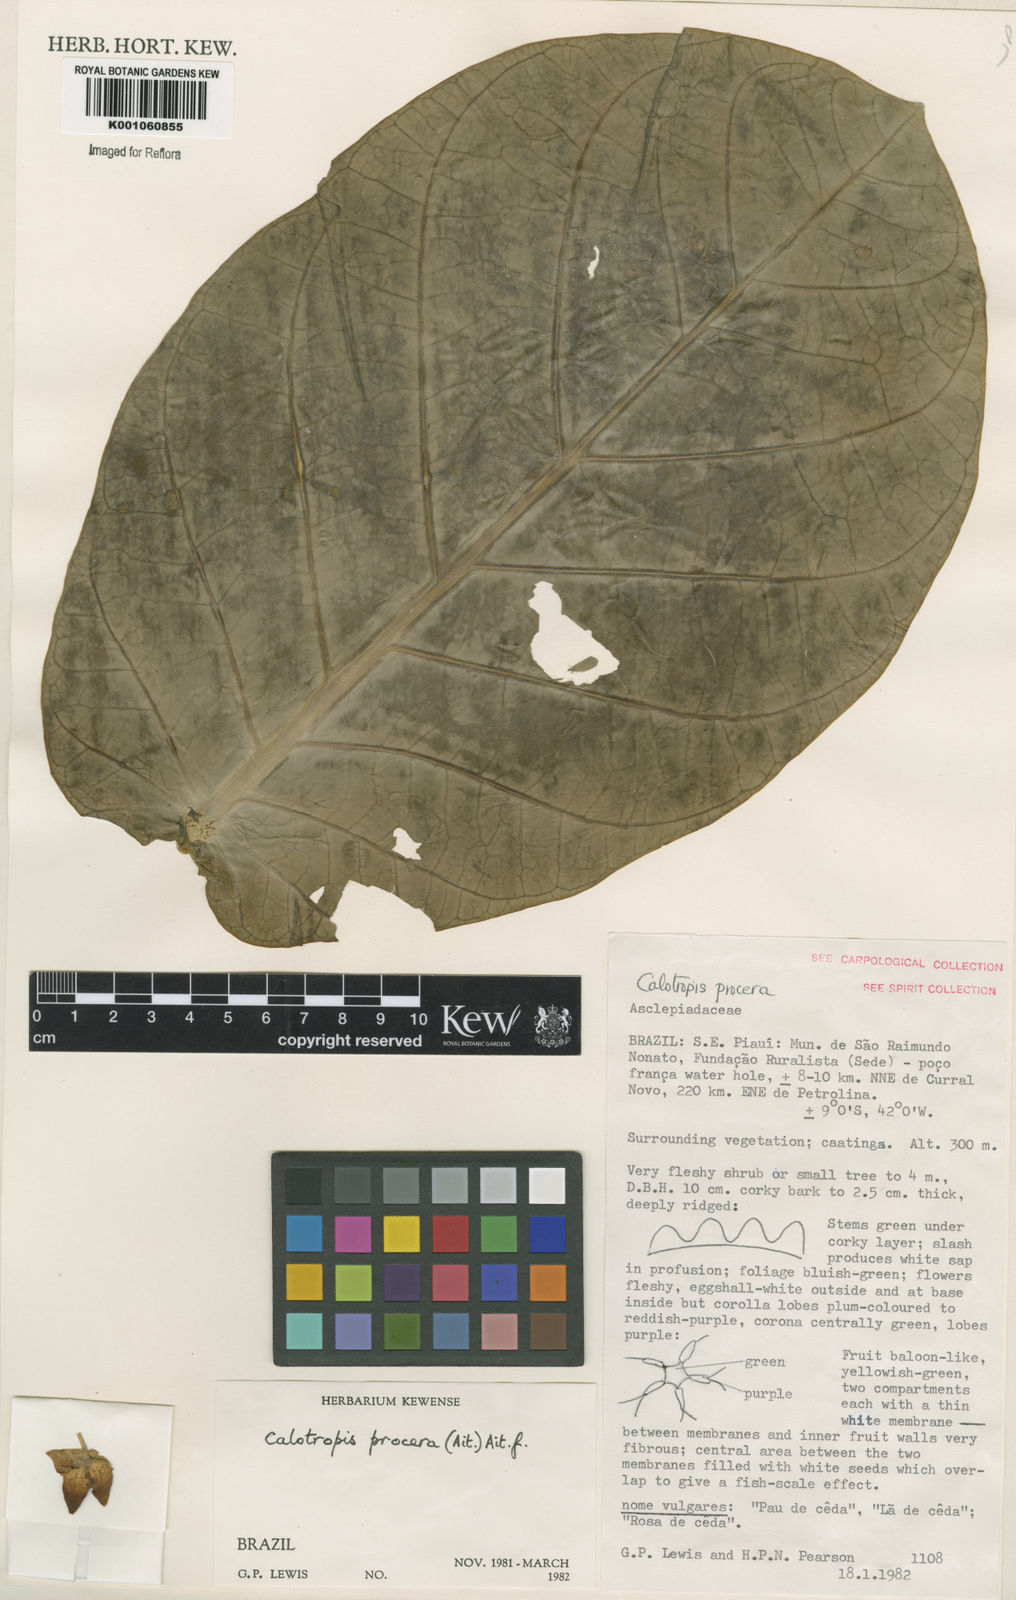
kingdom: Plantae
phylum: Tracheophyta
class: Magnoliopsida
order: Gentianales
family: Apocynaceae
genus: Calotropis
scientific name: Calotropis procera
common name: Roostertree
